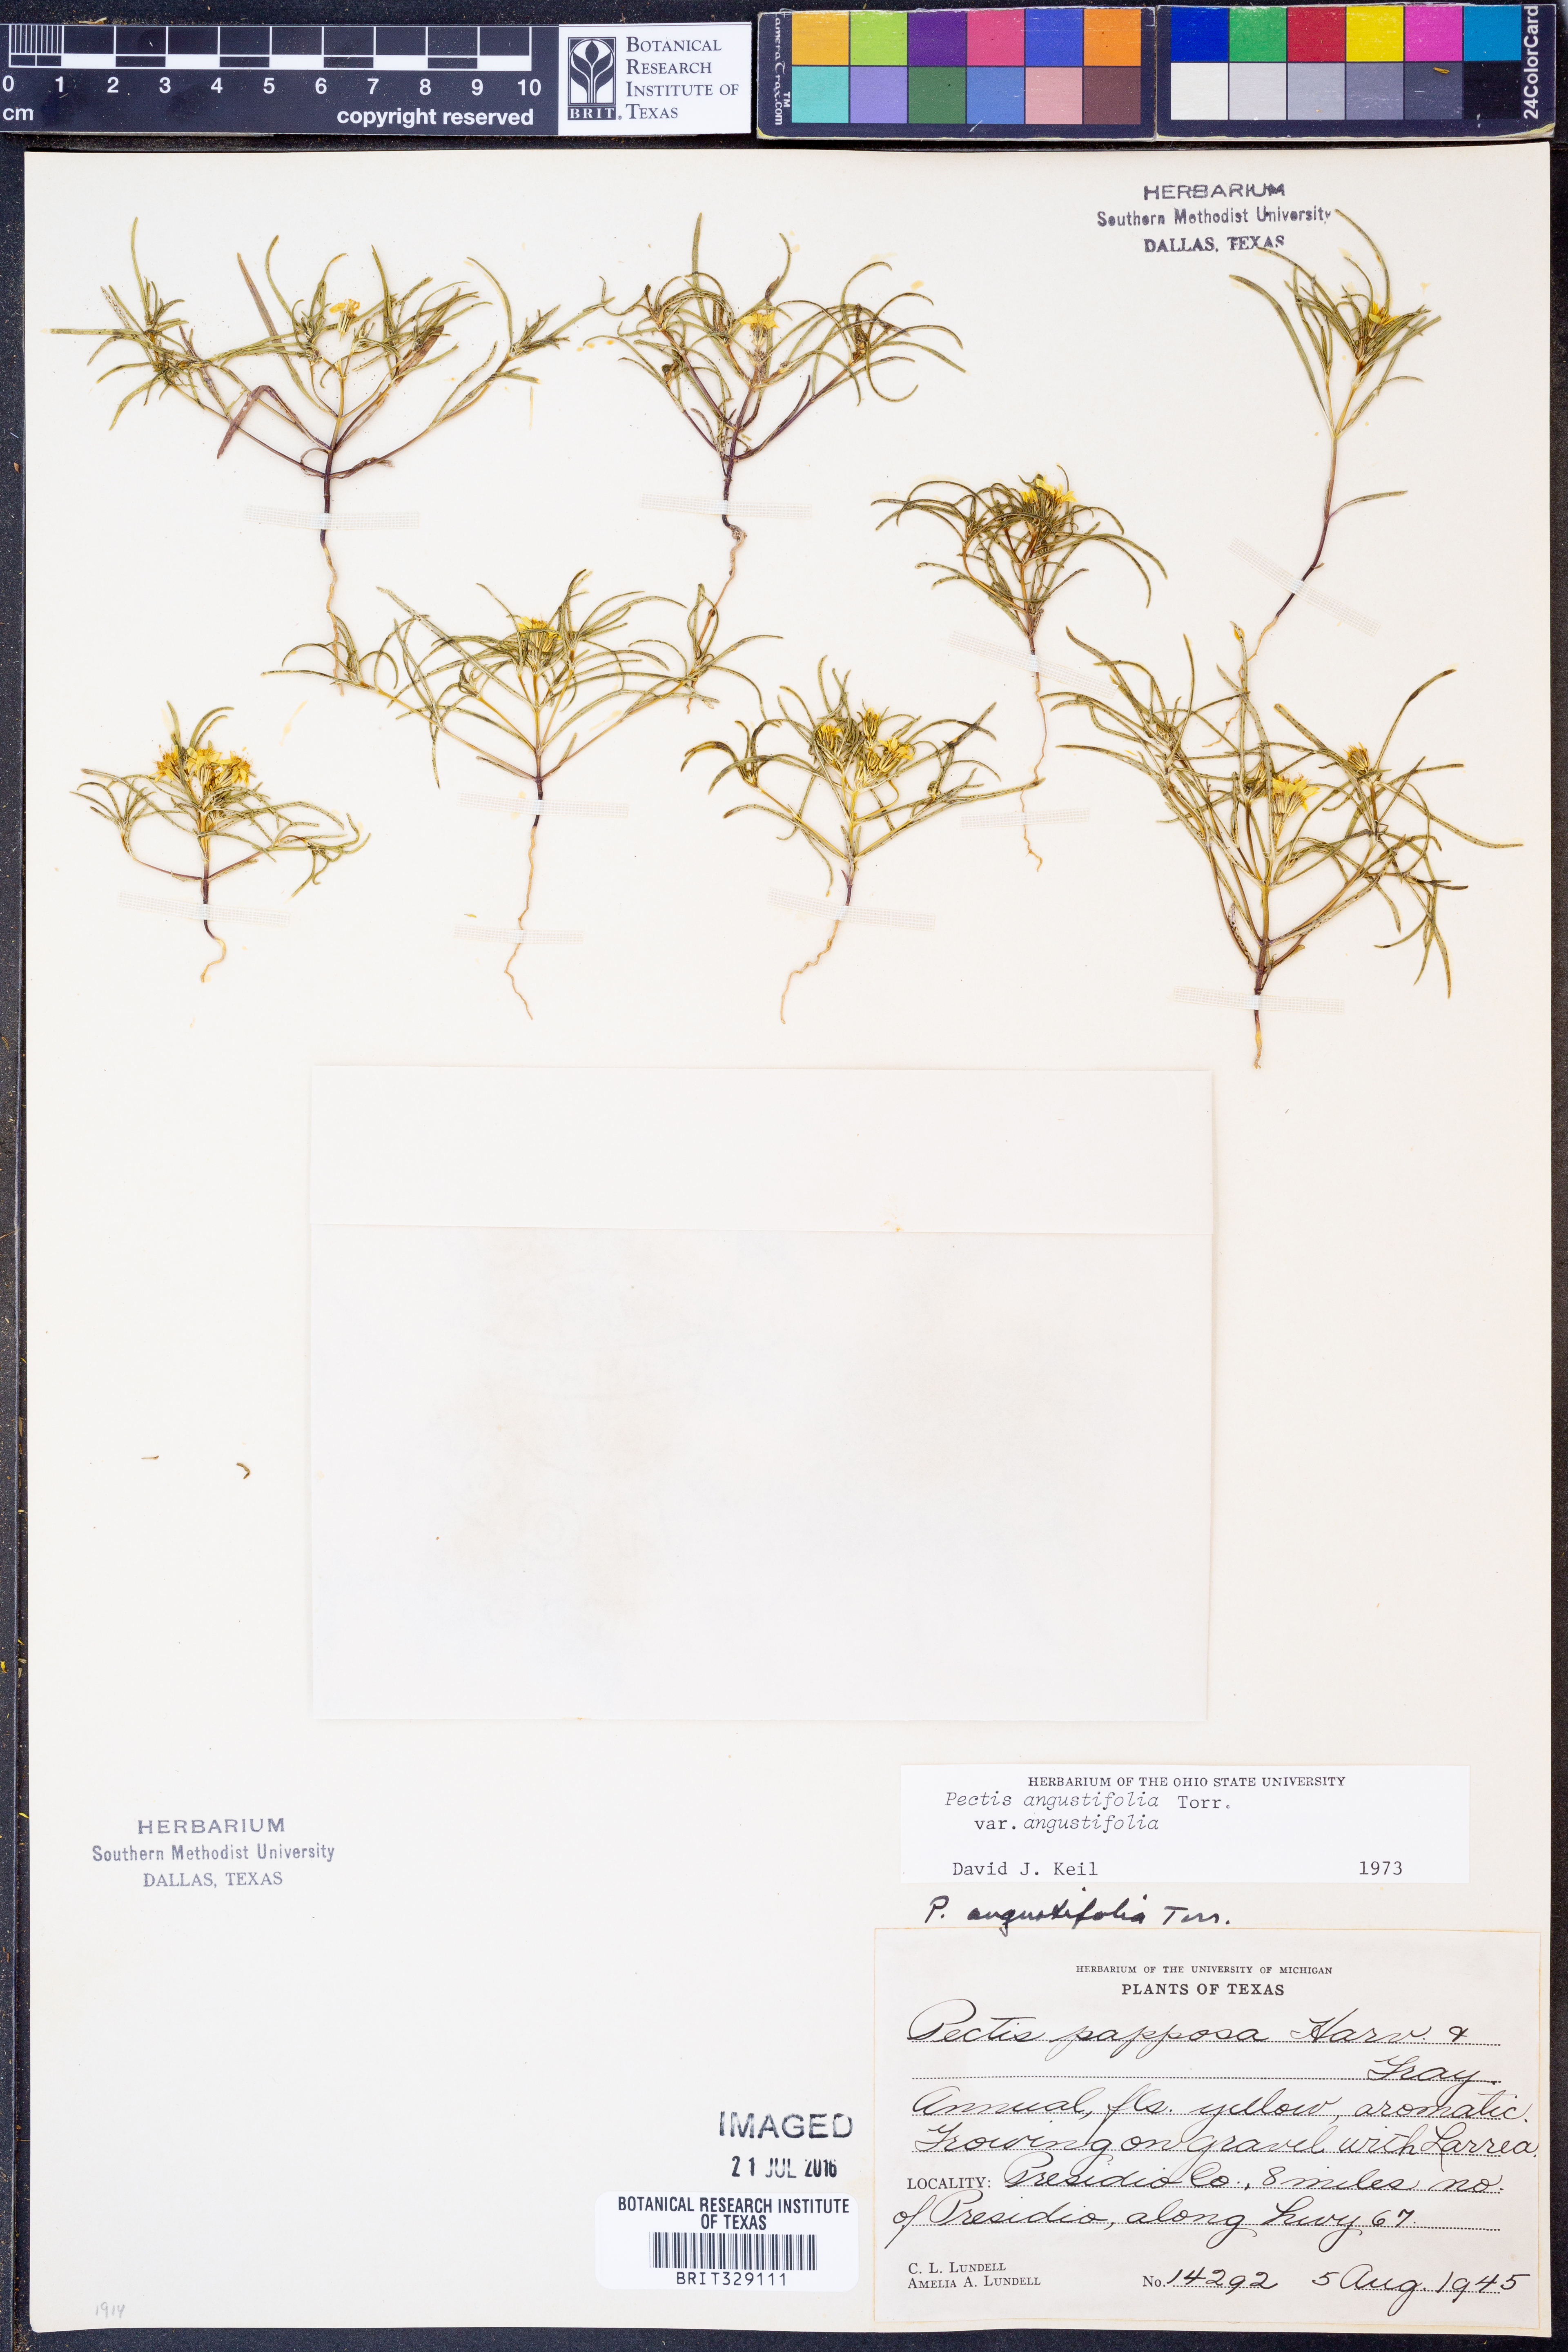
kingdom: Plantae
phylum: Tracheophyta
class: Magnoliopsida
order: Asterales
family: Asteraceae
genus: Pectis
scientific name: Pectis angustifolia
